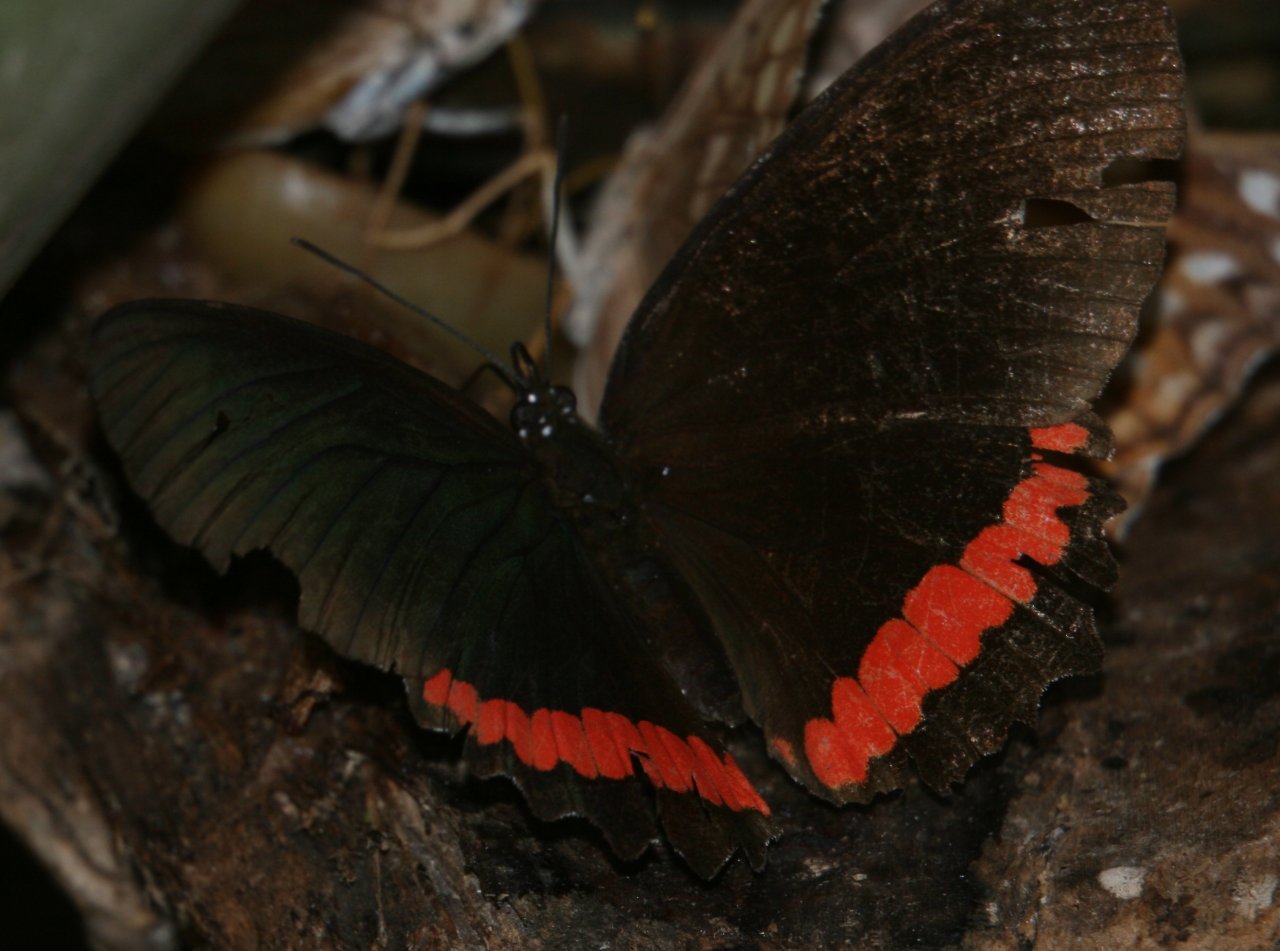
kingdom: Animalia
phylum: Arthropoda
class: Insecta
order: Lepidoptera
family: Sesiidae
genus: Sesia
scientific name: Sesia Biblis hyperia
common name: Red Rim
